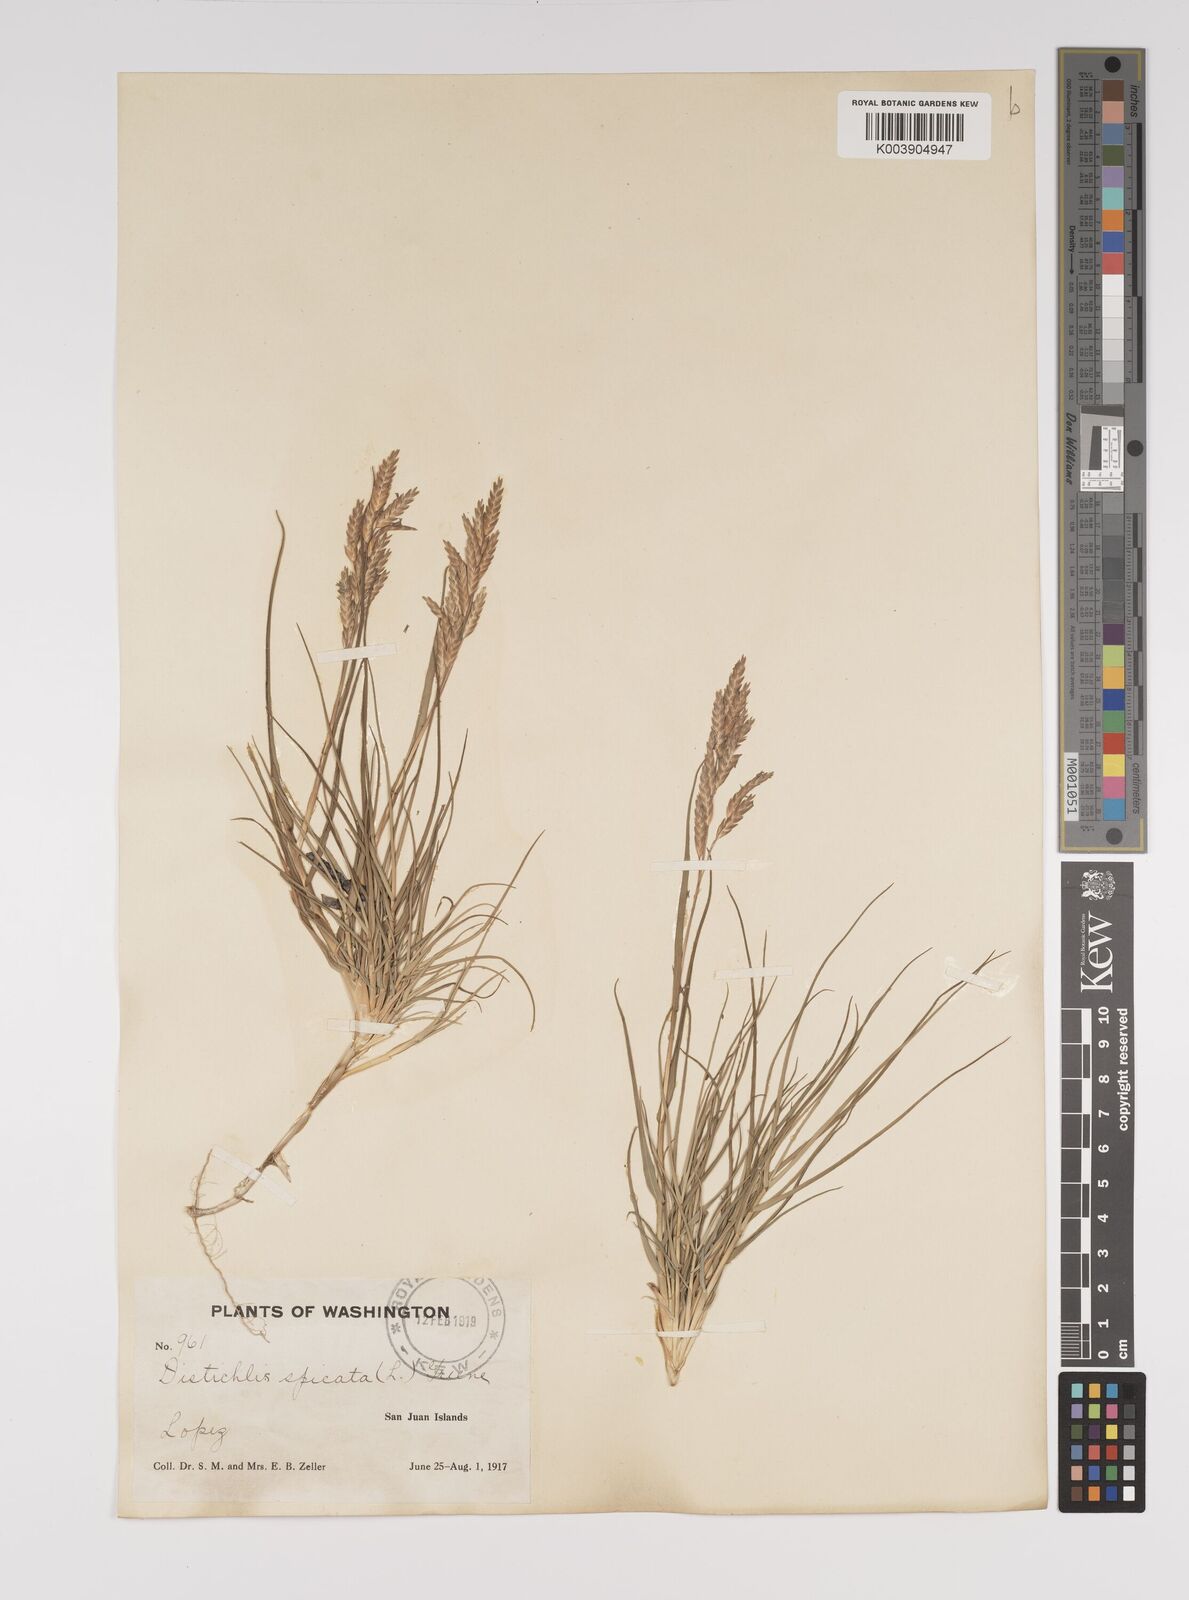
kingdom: Plantae
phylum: Tracheophyta
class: Liliopsida
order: Poales
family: Poaceae
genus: Distichlis
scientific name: Distichlis spicata
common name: Saltgrass
